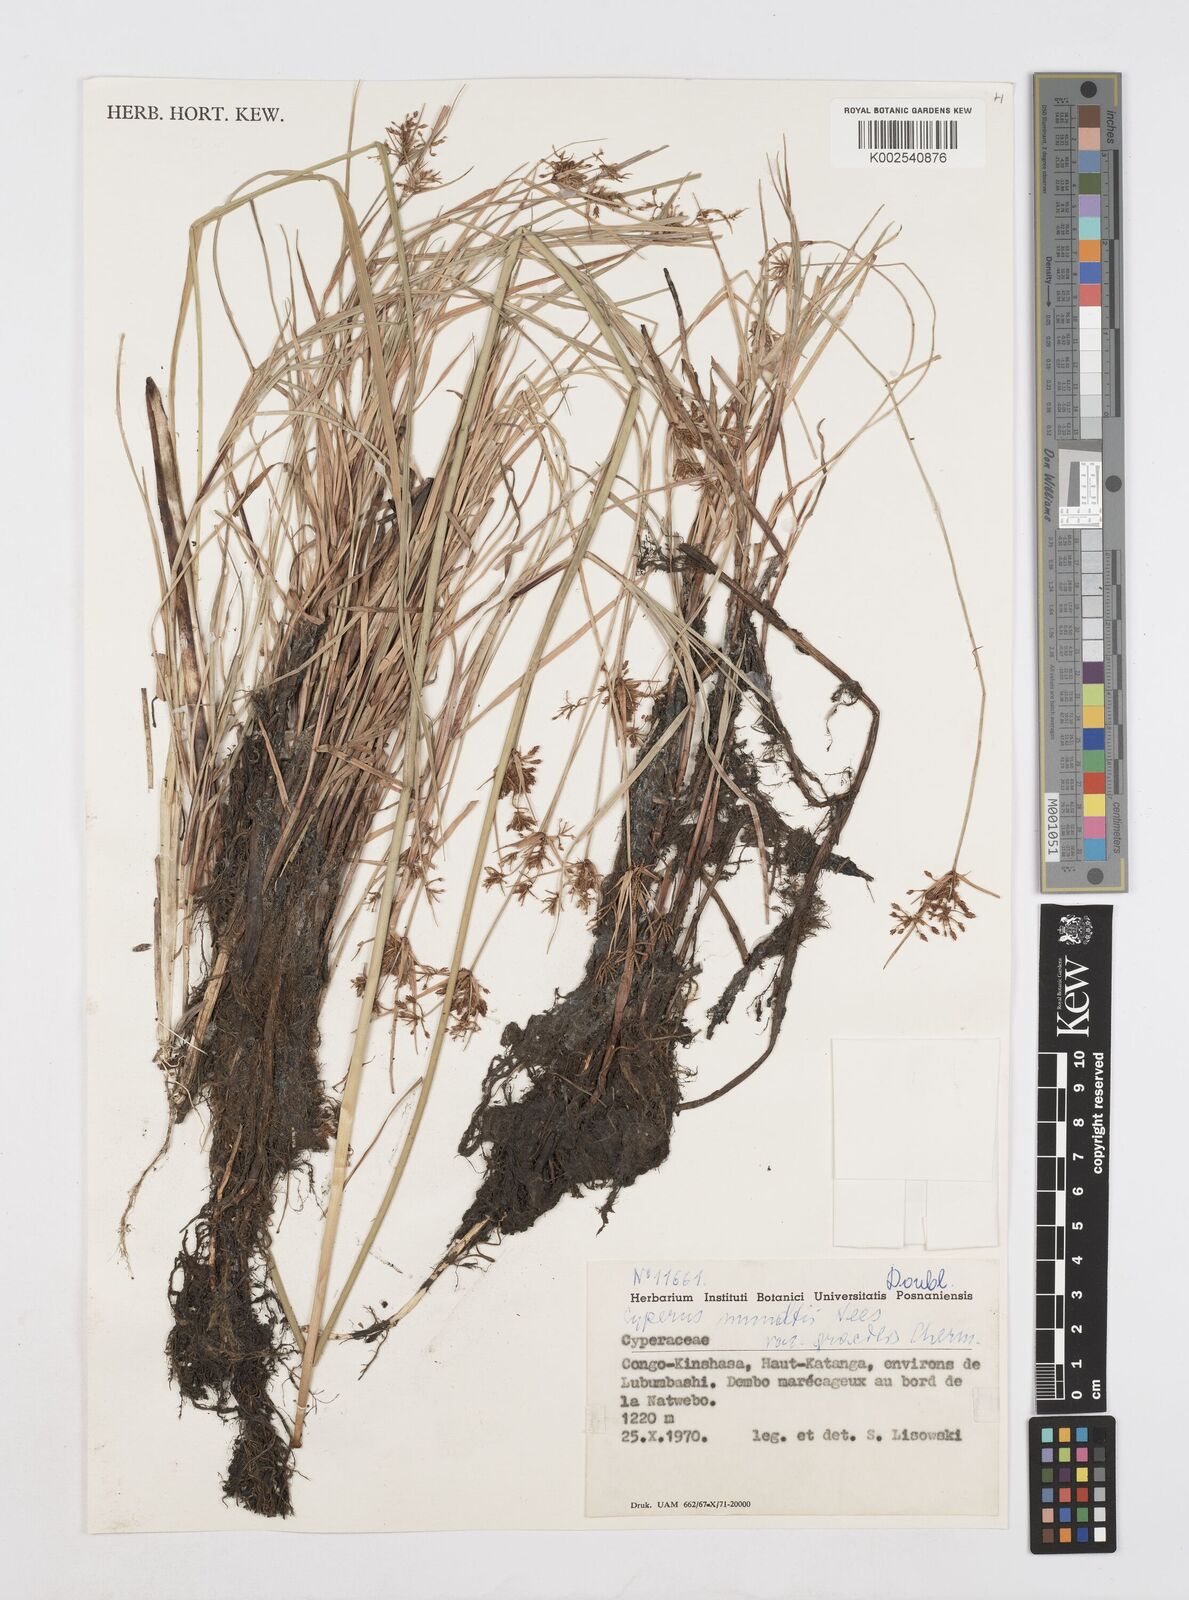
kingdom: Plantae
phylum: Tracheophyta
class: Liliopsida
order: Poales
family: Cyperaceae
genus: Cyperus
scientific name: Cyperus mundii
